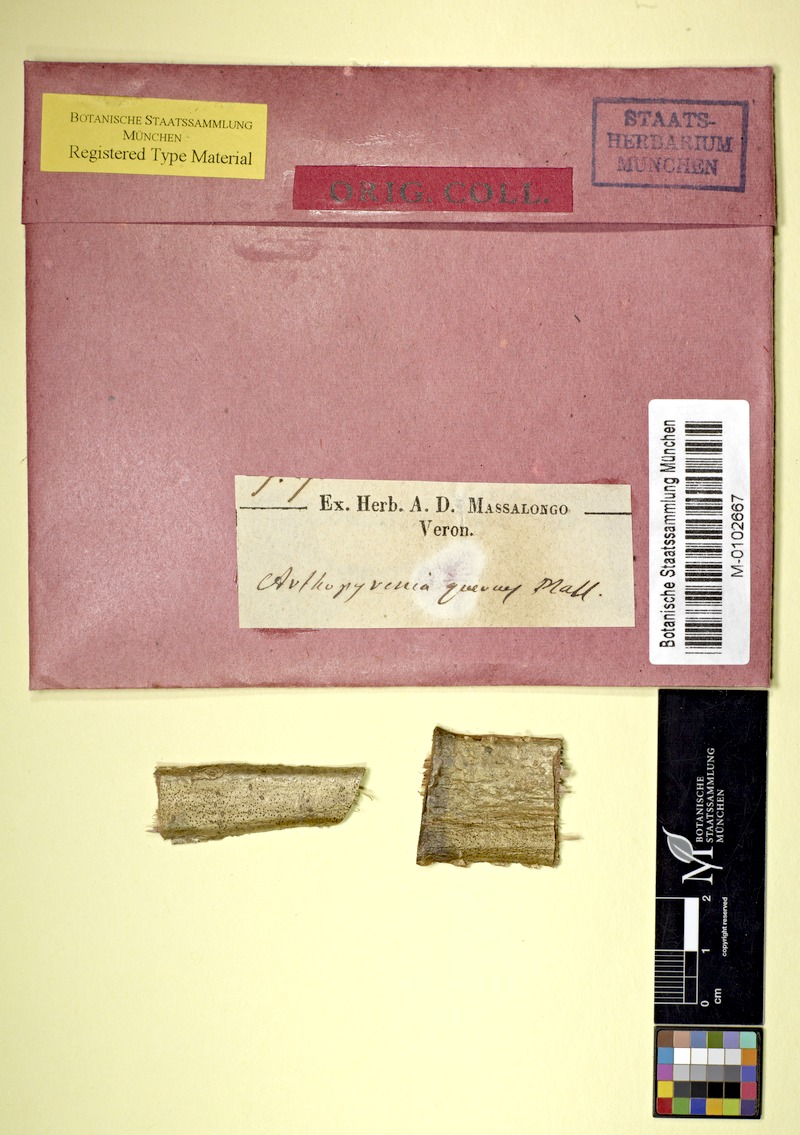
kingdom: Fungi
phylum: Ascomycota
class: Dothideomycetes
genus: Cyrtidula
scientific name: Cyrtidula quercus
